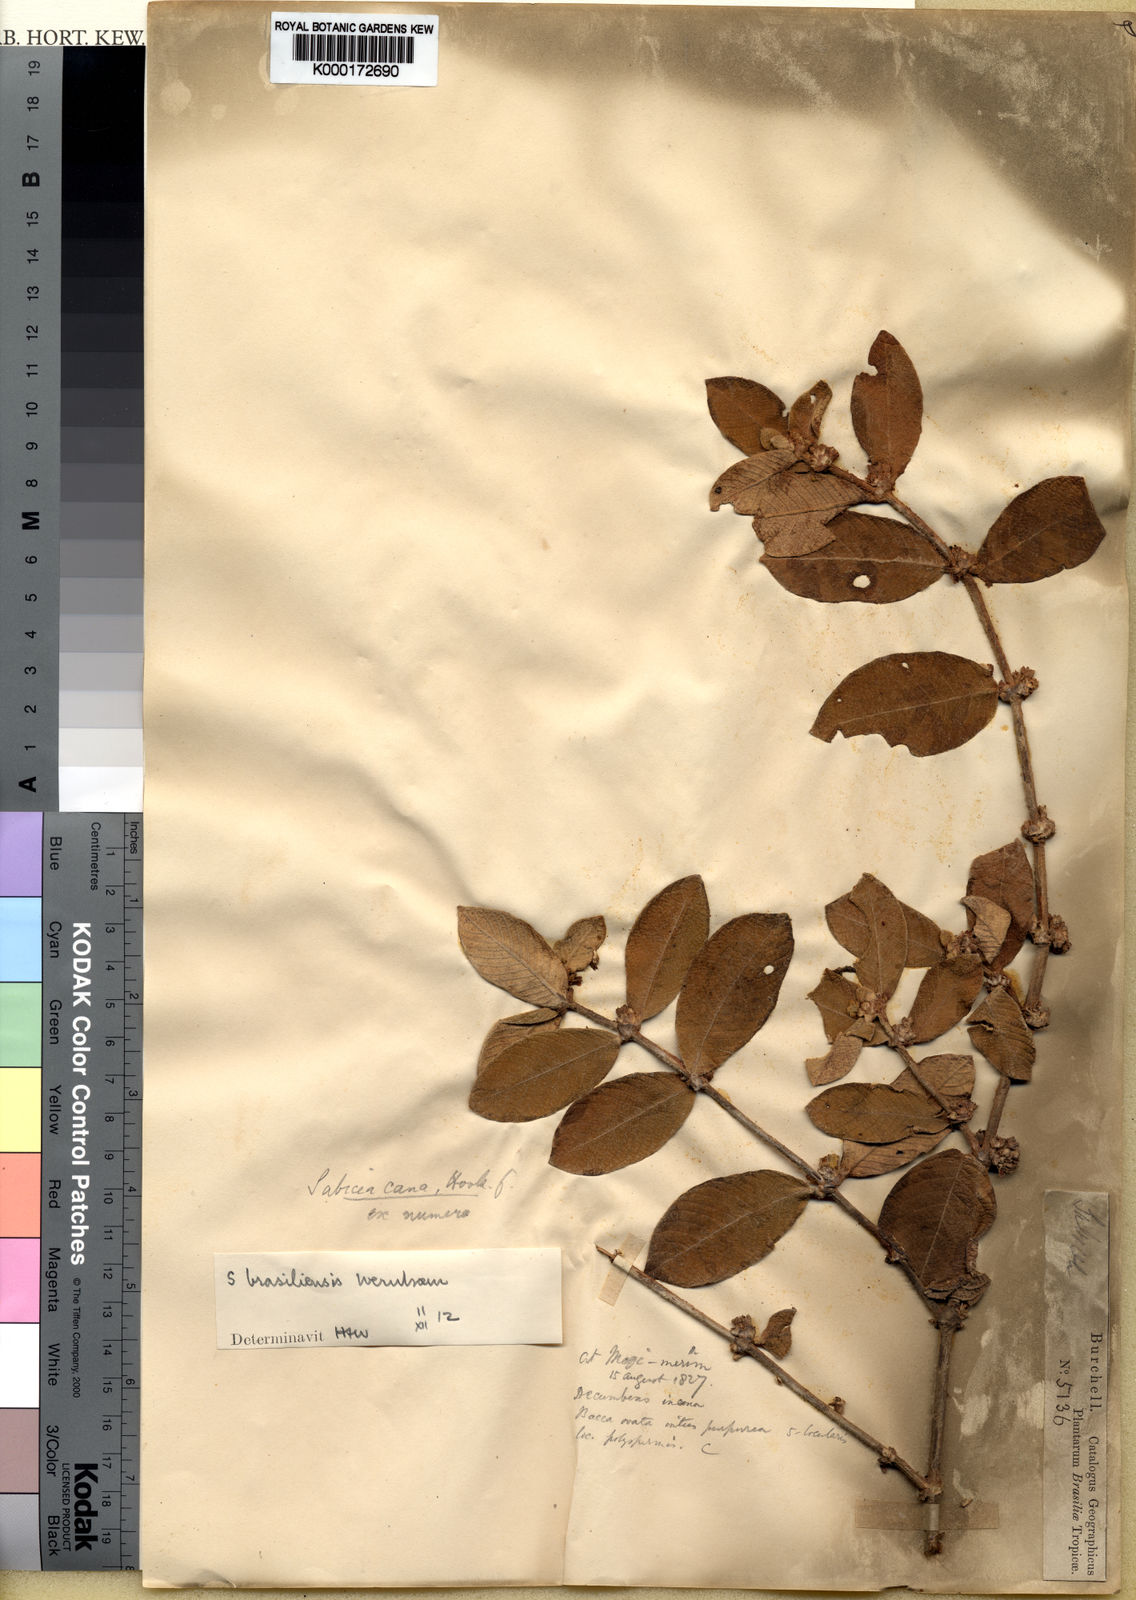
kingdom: Plantae
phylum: Tracheophyta
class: Magnoliopsida
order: Gentianales
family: Rubiaceae
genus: Sabicea
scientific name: Sabicea brasiliensis
